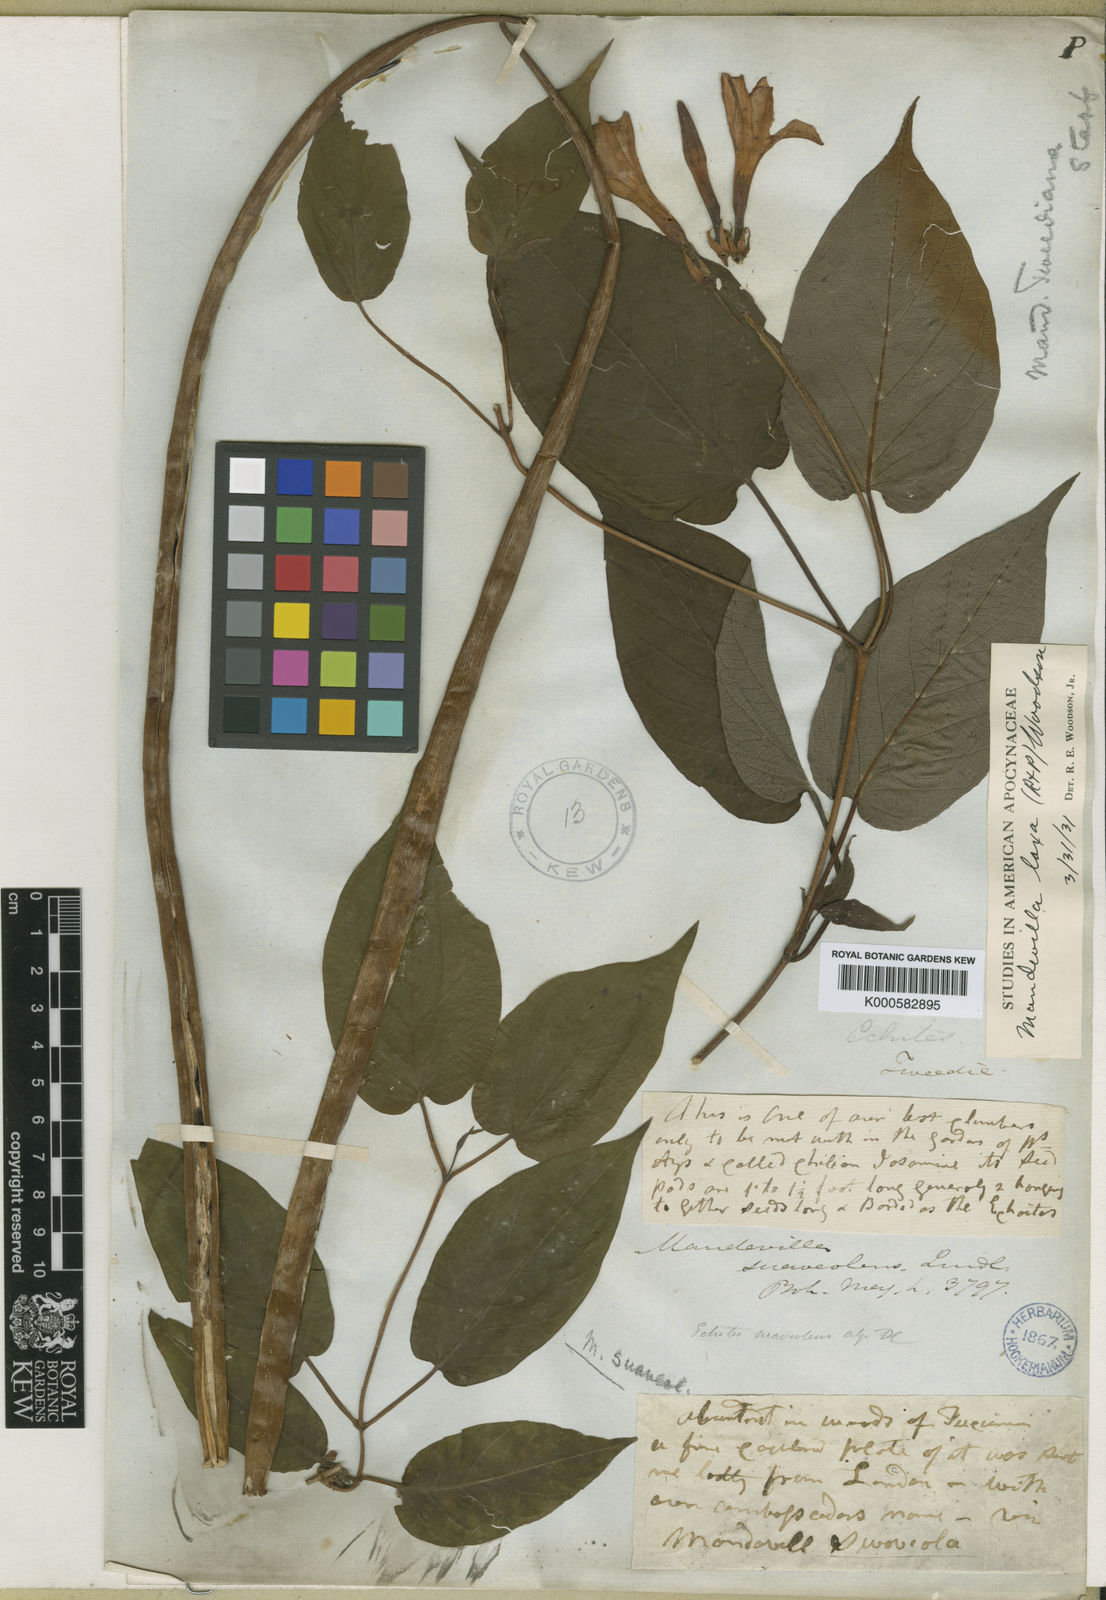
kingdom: Plantae
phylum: Tracheophyta
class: Magnoliopsida
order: Gentianales
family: Apocynaceae
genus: Mandevilla
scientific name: Mandevilla laxa
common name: Chilean-jasmine
